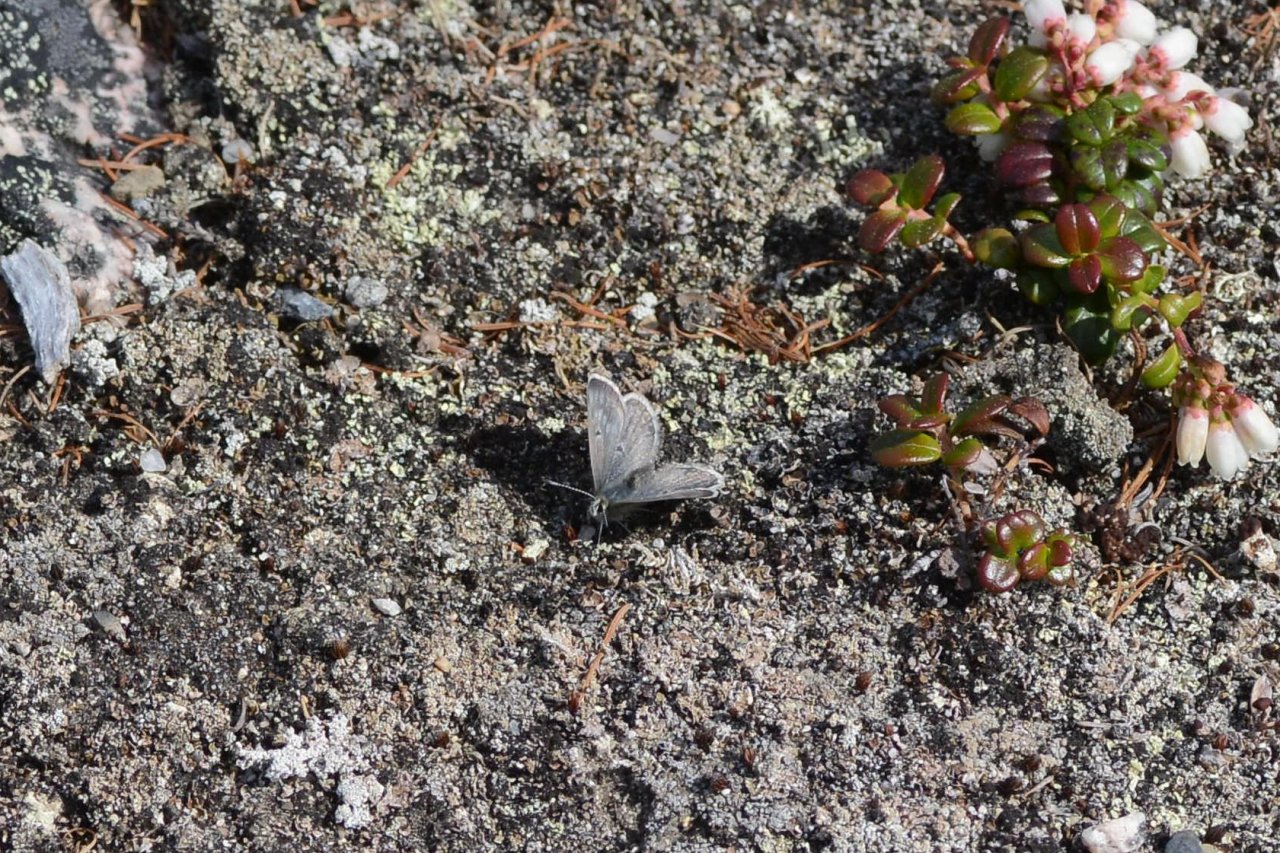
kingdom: Animalia
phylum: Arthropoda
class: Insecta
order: Lepidoptera
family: Lycaenidae
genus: Agriades
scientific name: Agriades glandon
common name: Arctic Blue
